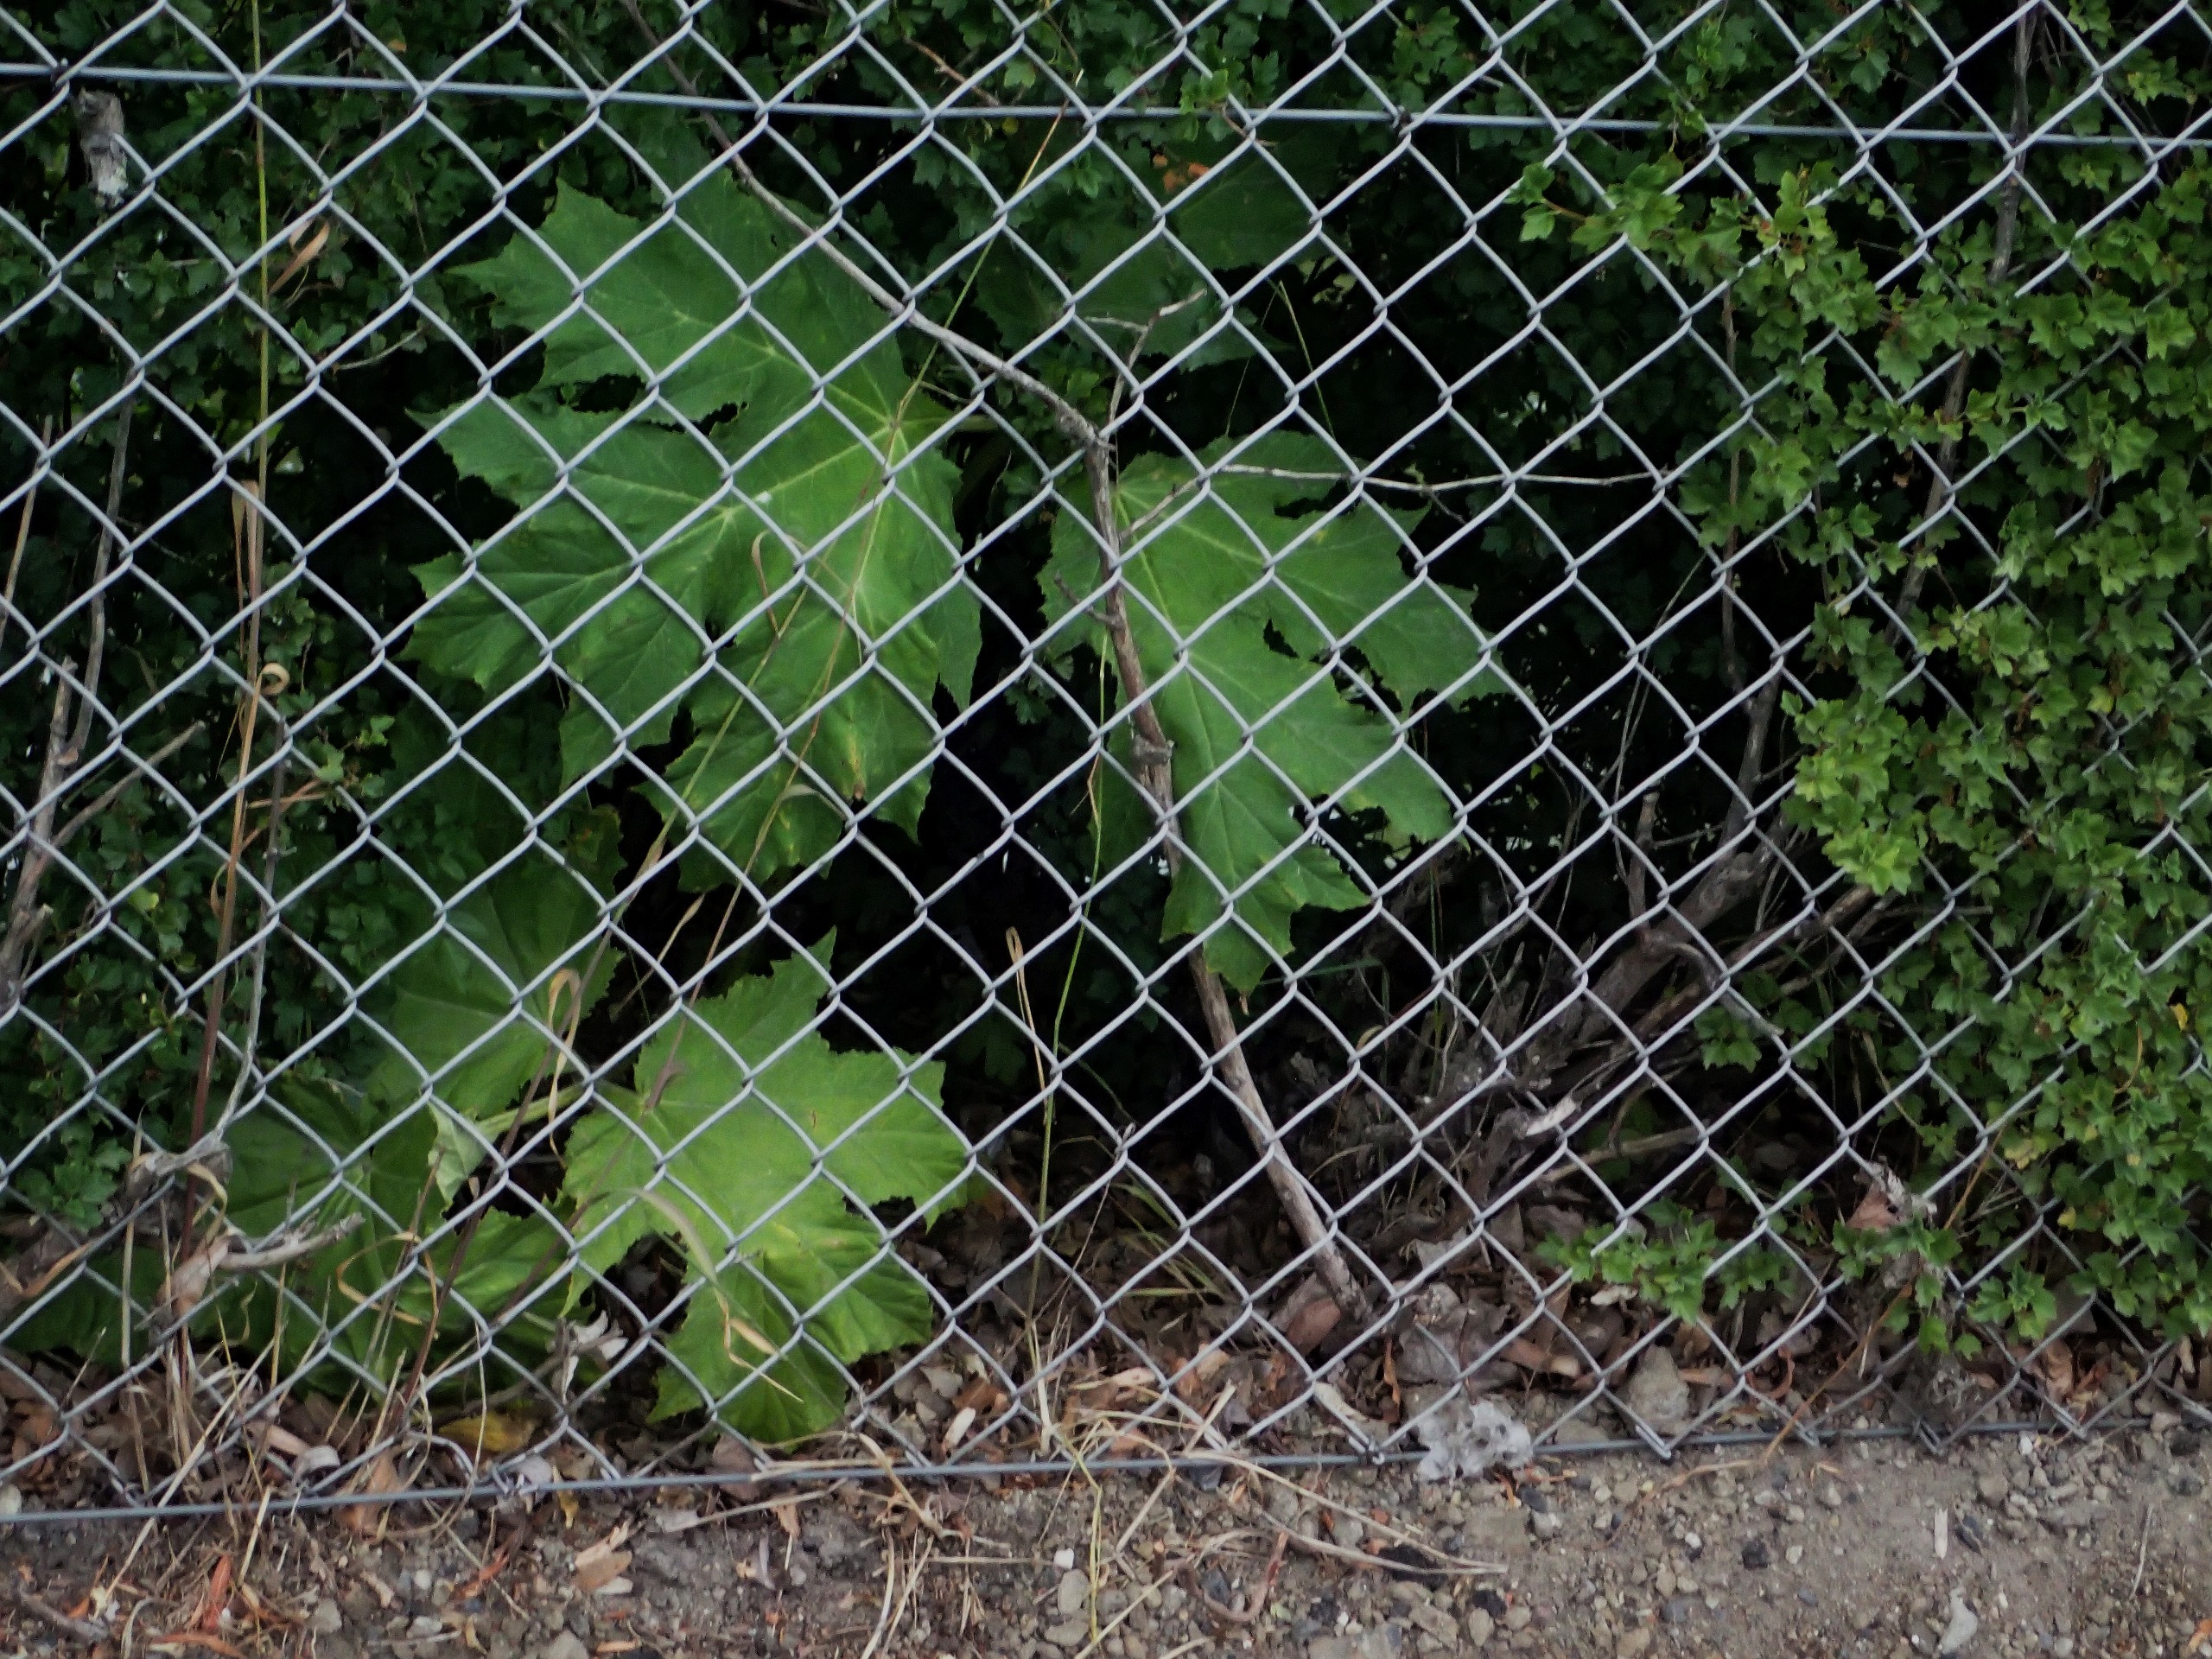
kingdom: Plantae
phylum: Tracheophyta
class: Magnoliopsida
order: Apiales
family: Apiaceae
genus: Heracleum
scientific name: Heracleum mantegazzianum
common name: Kæmpe-bjørneklo
